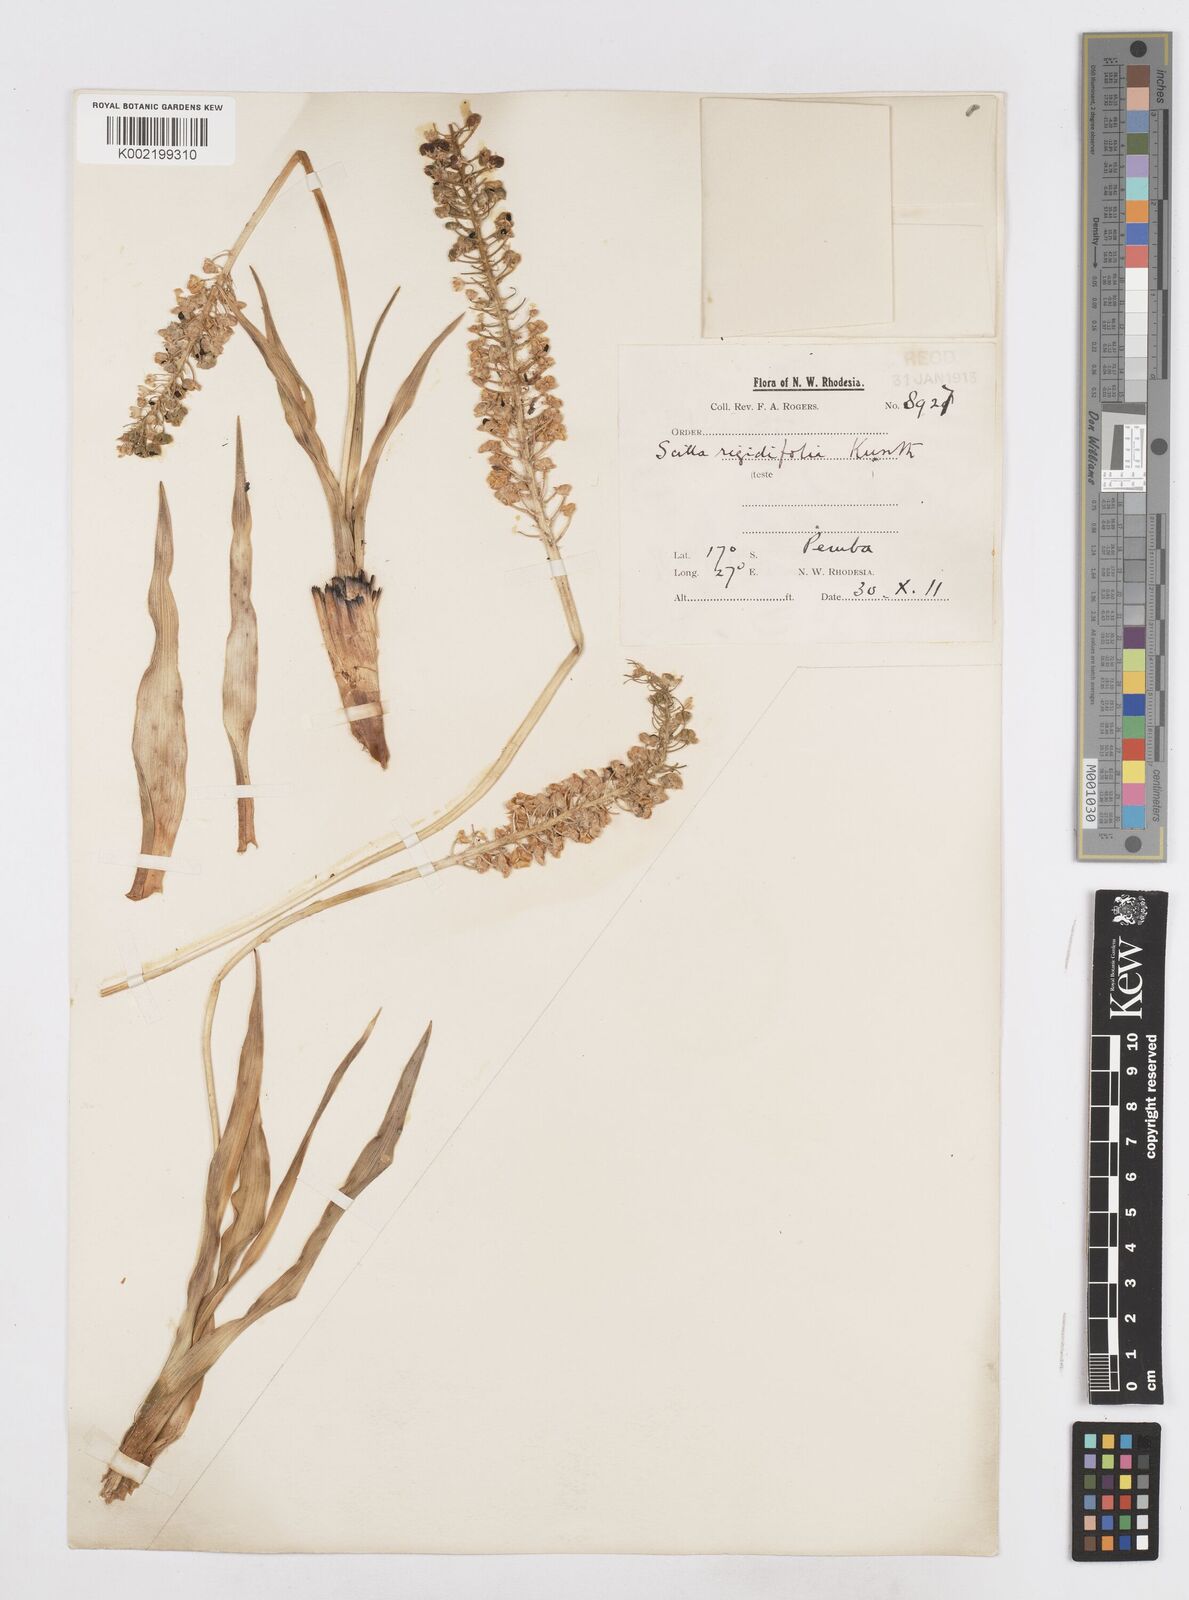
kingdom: Plantae
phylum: Tracheophyta
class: Liliopsida
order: Asparagales
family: Asparagaceae
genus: Schizocarphus
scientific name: Schizocarphus nervosus
